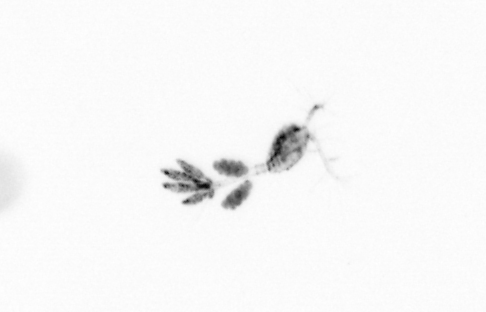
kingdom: Animalia
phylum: Arthropoda
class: Copepoda
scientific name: Copepoda
